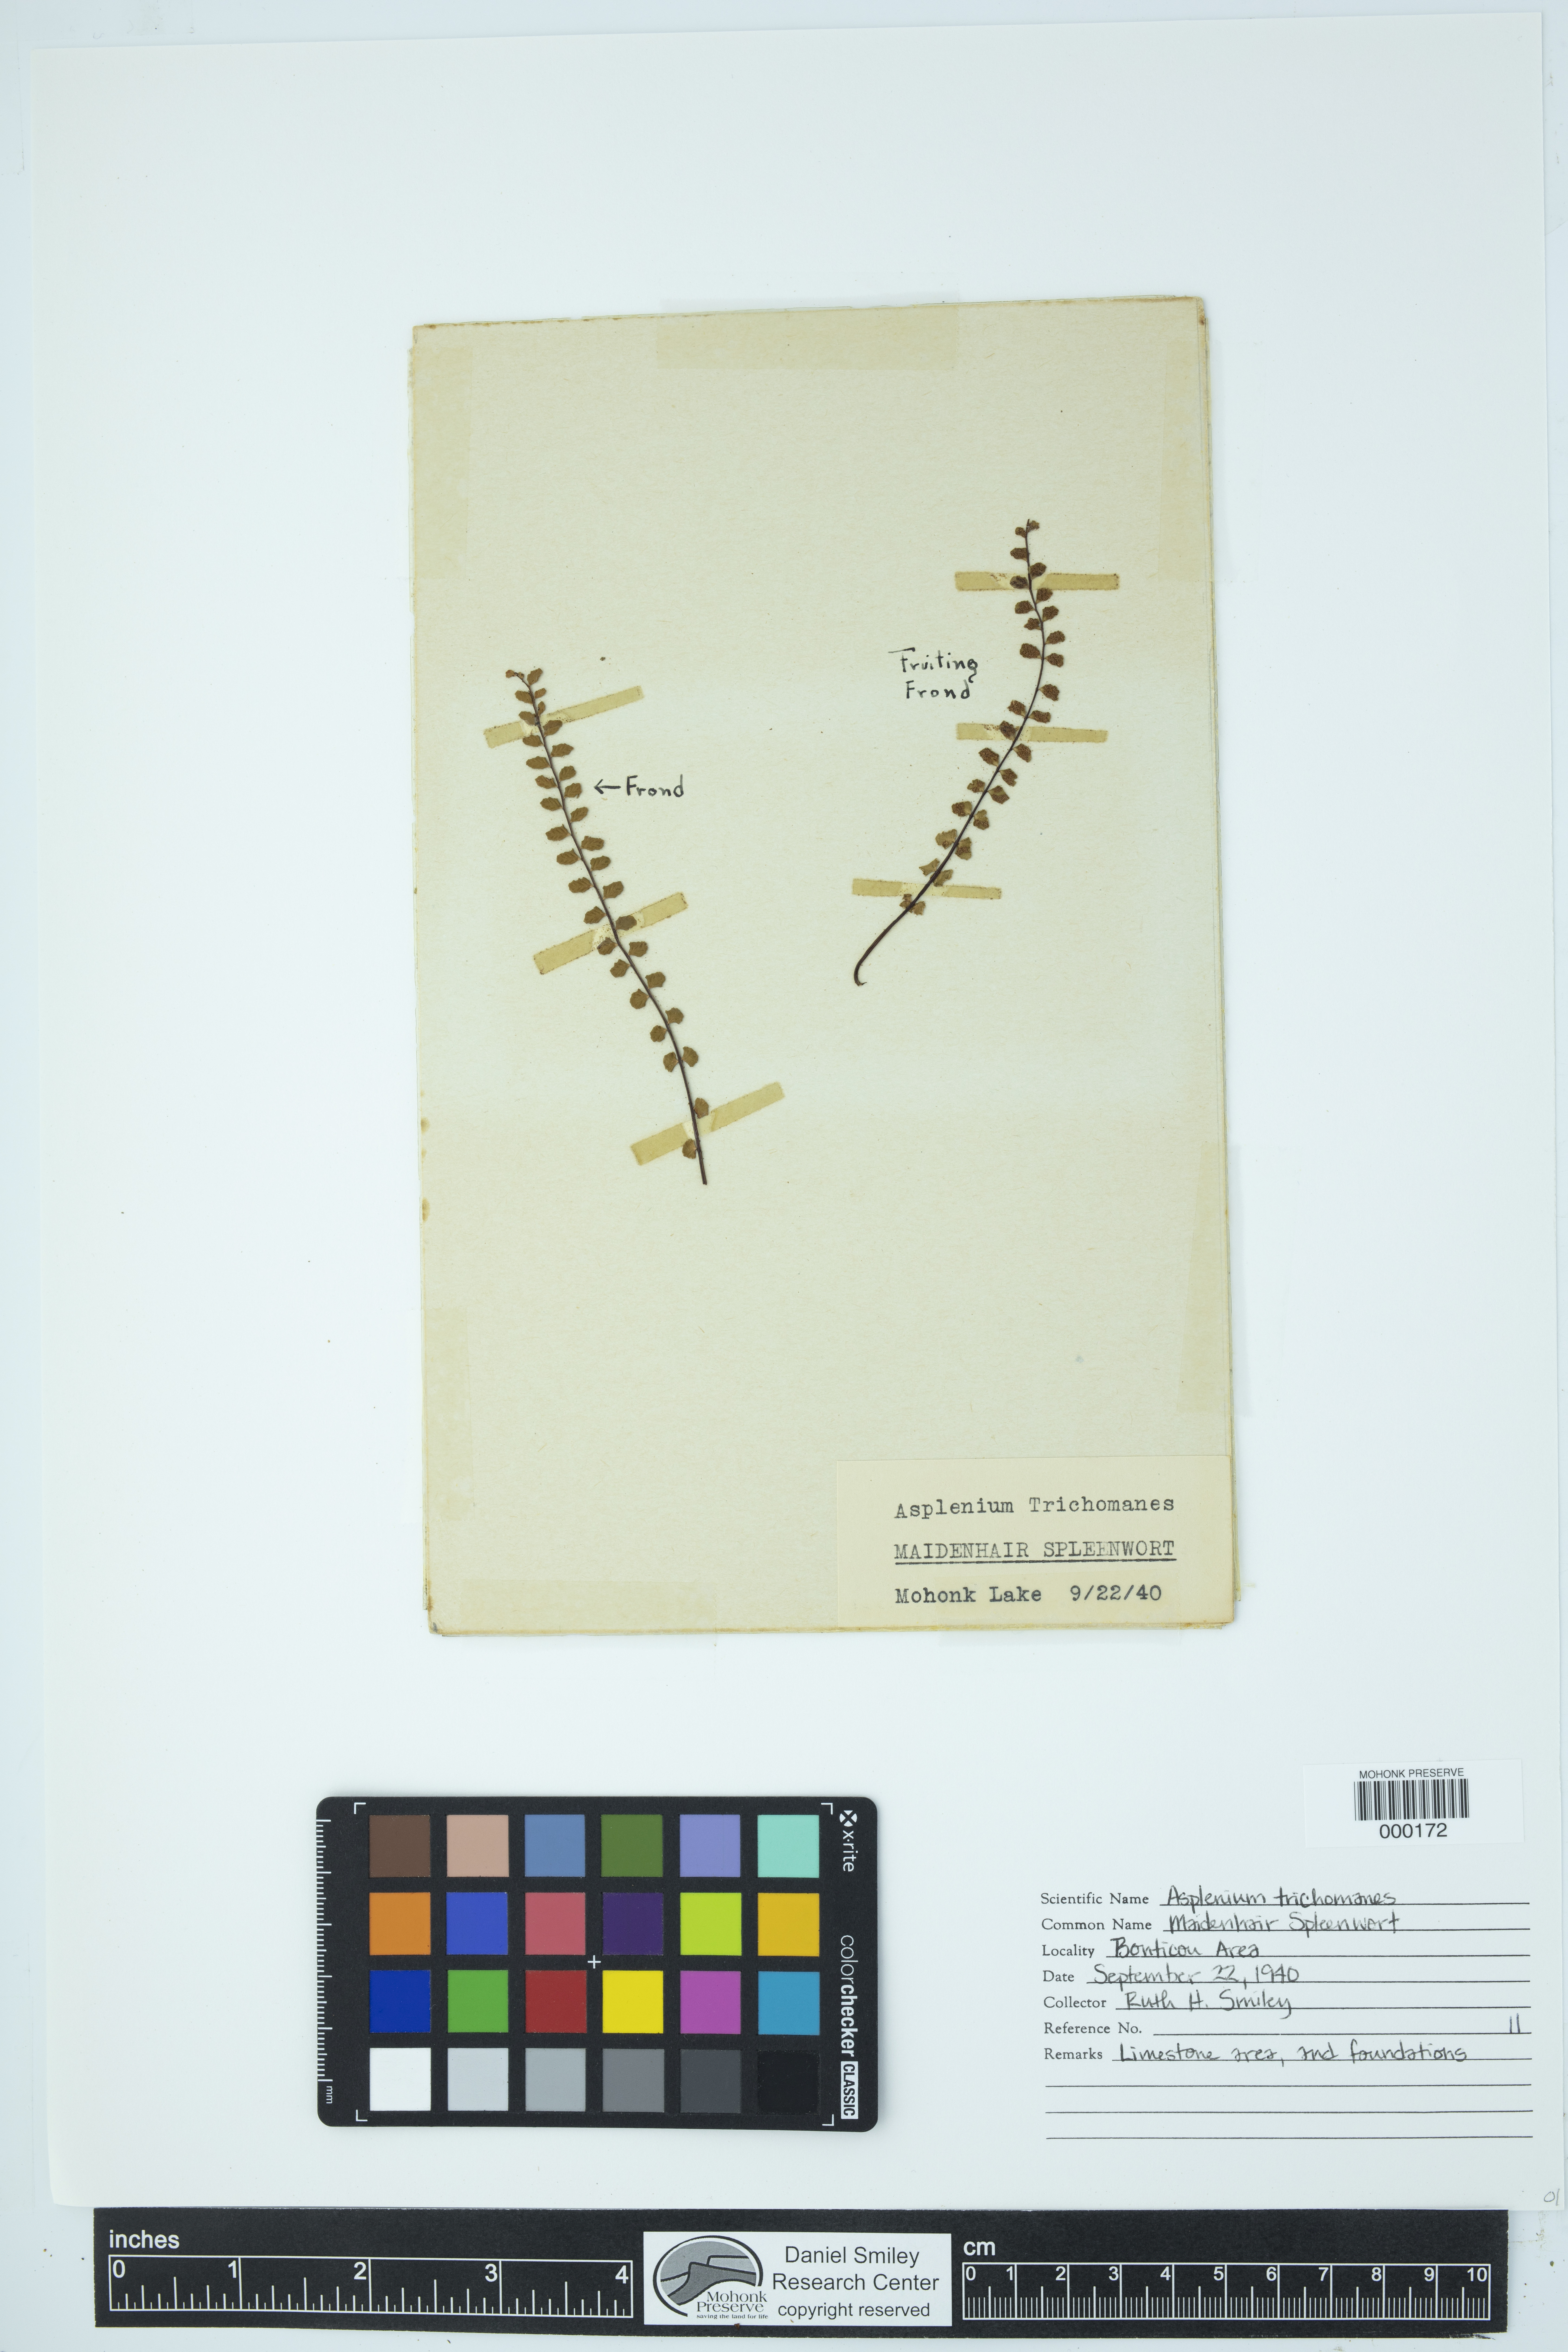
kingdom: Plantae
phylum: Tracheophyta
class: Polypodiopsida
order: Polypodiales
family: Aspleniaceae
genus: Asplenium
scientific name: Asplenium trichomanes
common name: Maidenhair spleenwort
